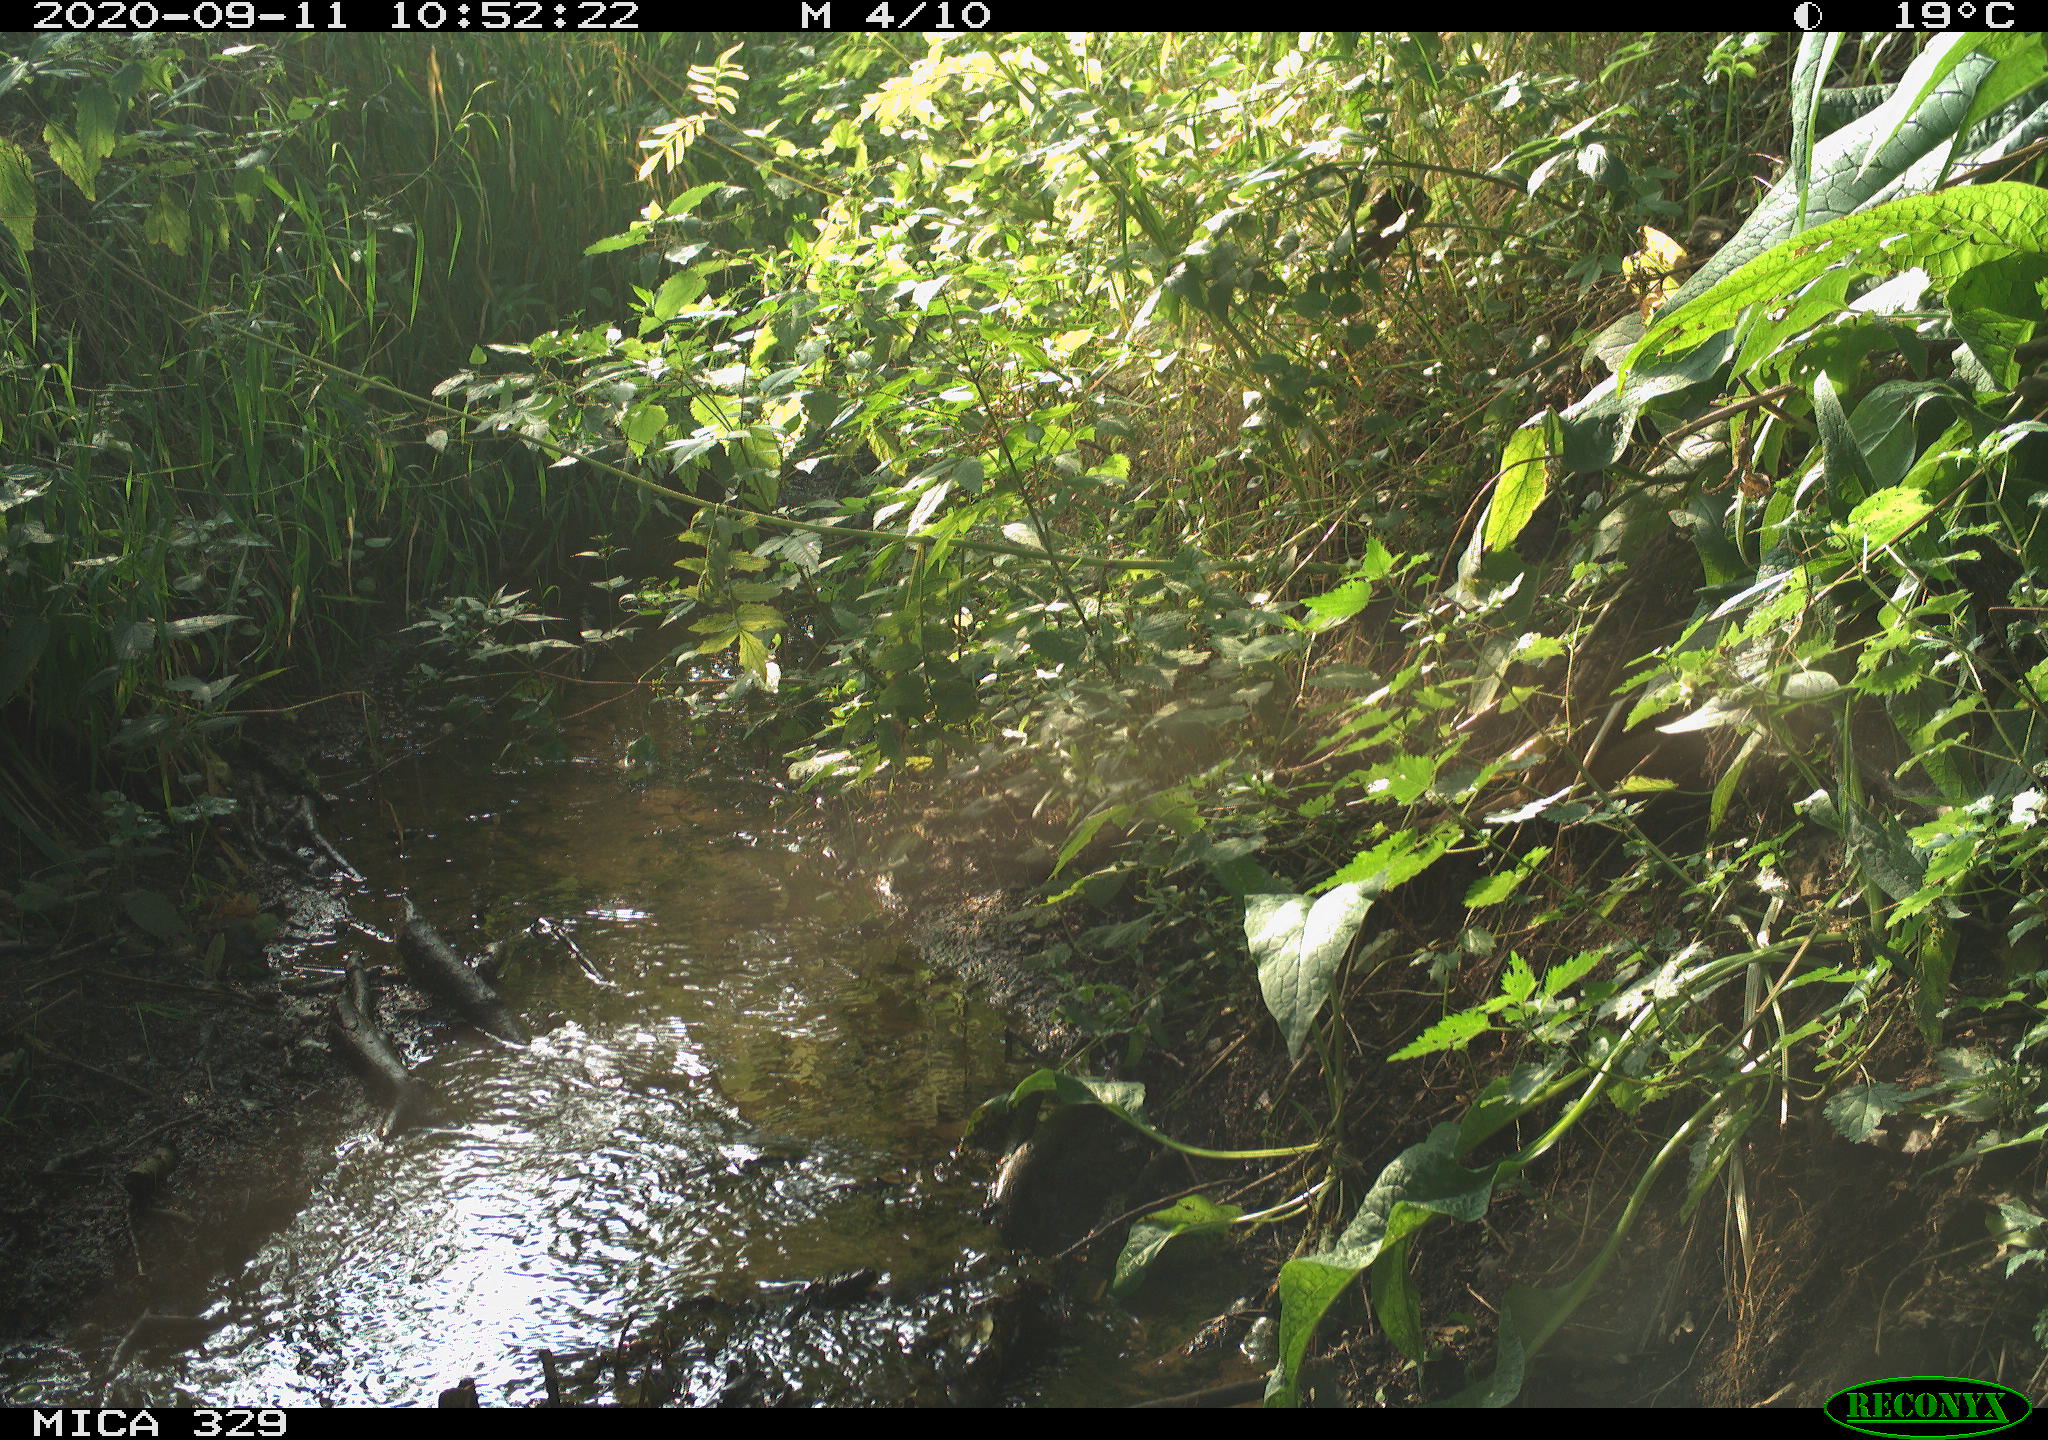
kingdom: Animalia
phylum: Chordata
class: Aves
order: Passeriformes
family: Corvidae
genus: Garrulus
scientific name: Garrulus glandarius
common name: Eurasian jay
